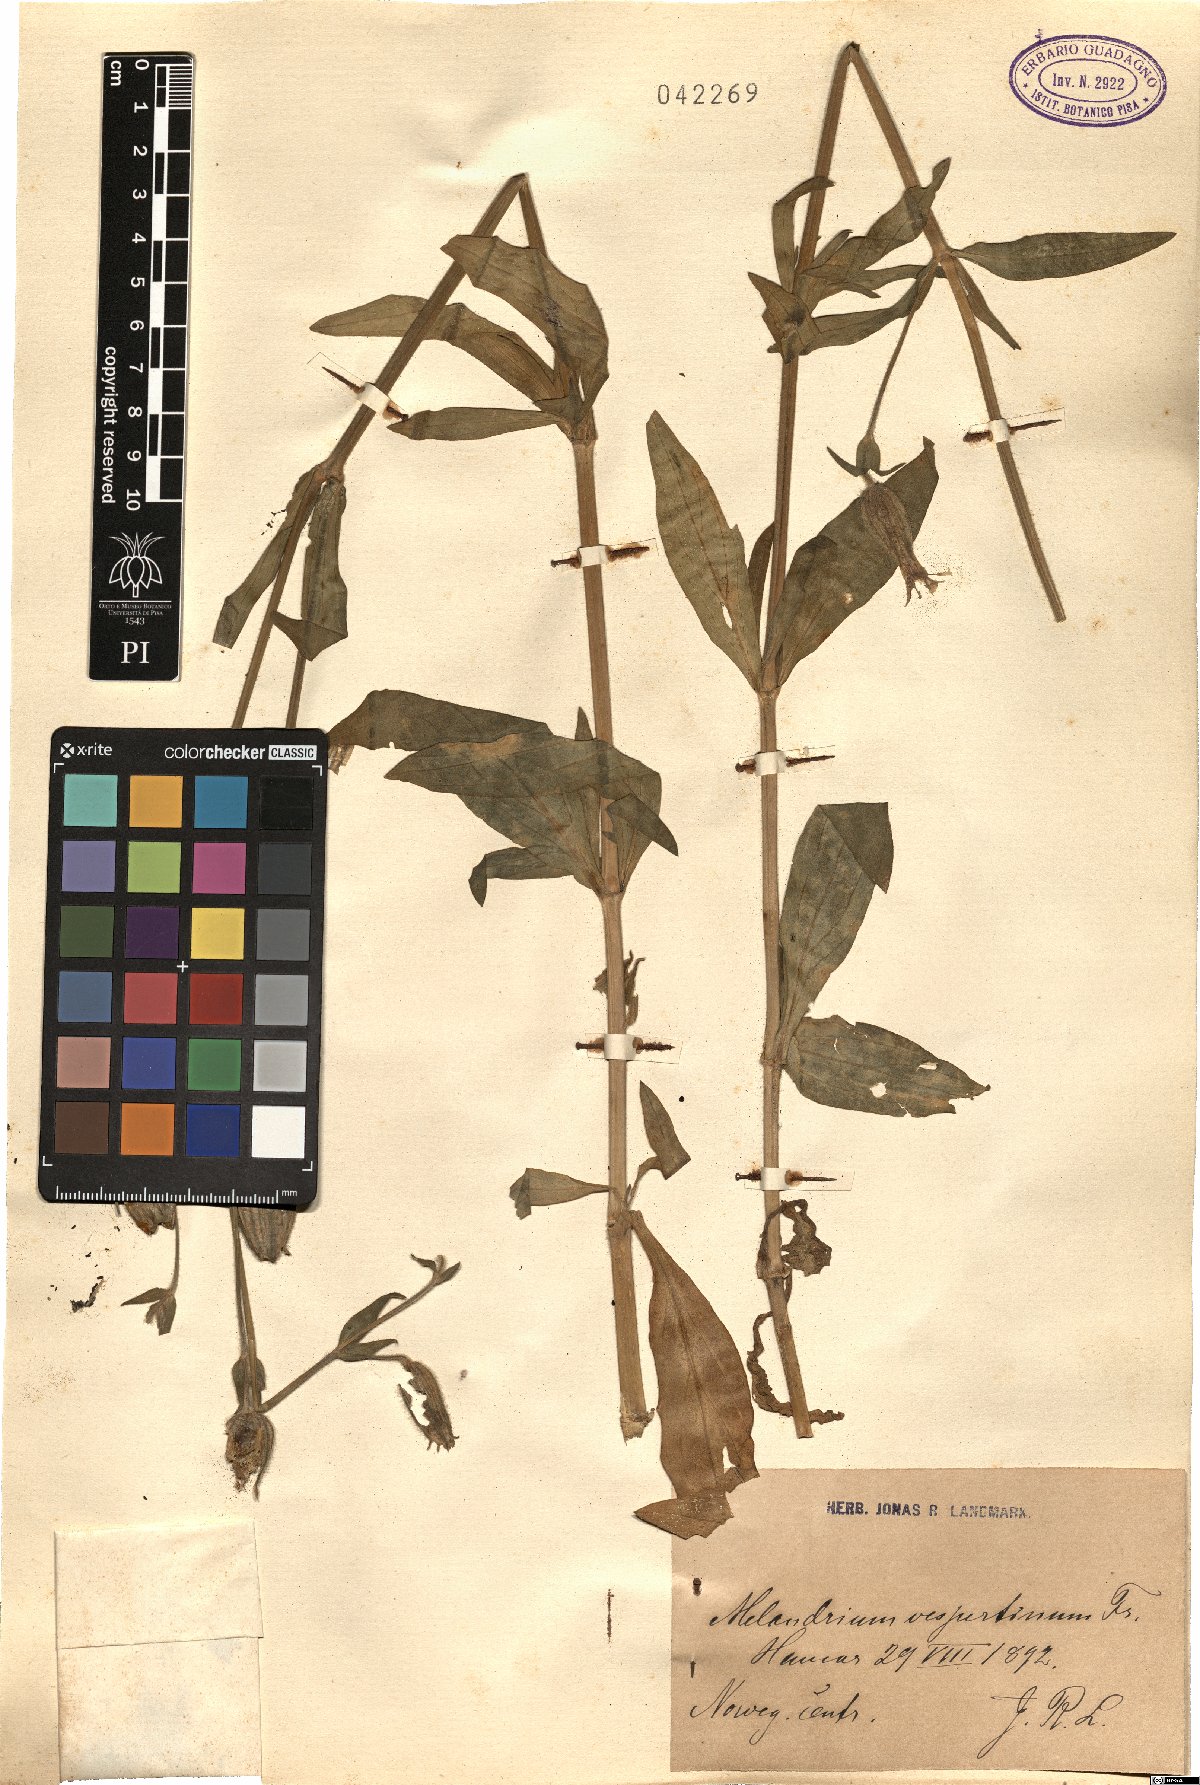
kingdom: Plantae
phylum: Tracheophyta
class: Magnoliopsida
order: Caryophyllales
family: Caryophyllaceae
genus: Silene
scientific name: Silene latifolia
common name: White campion
